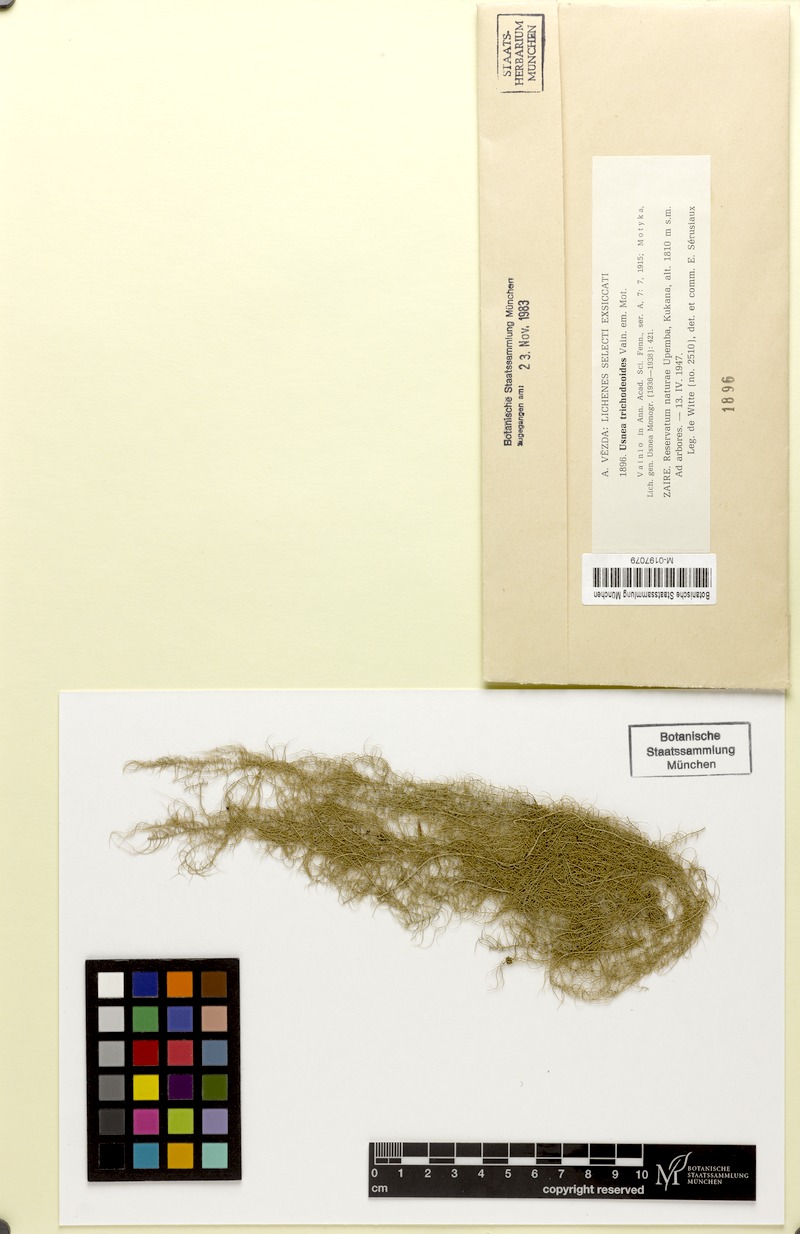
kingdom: Fungi
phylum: Ascomycota
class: Lecanoromycetes
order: Lecanorales
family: Parmeliaceae
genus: Dolichousnea
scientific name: Dolichousnea trichodeoides
